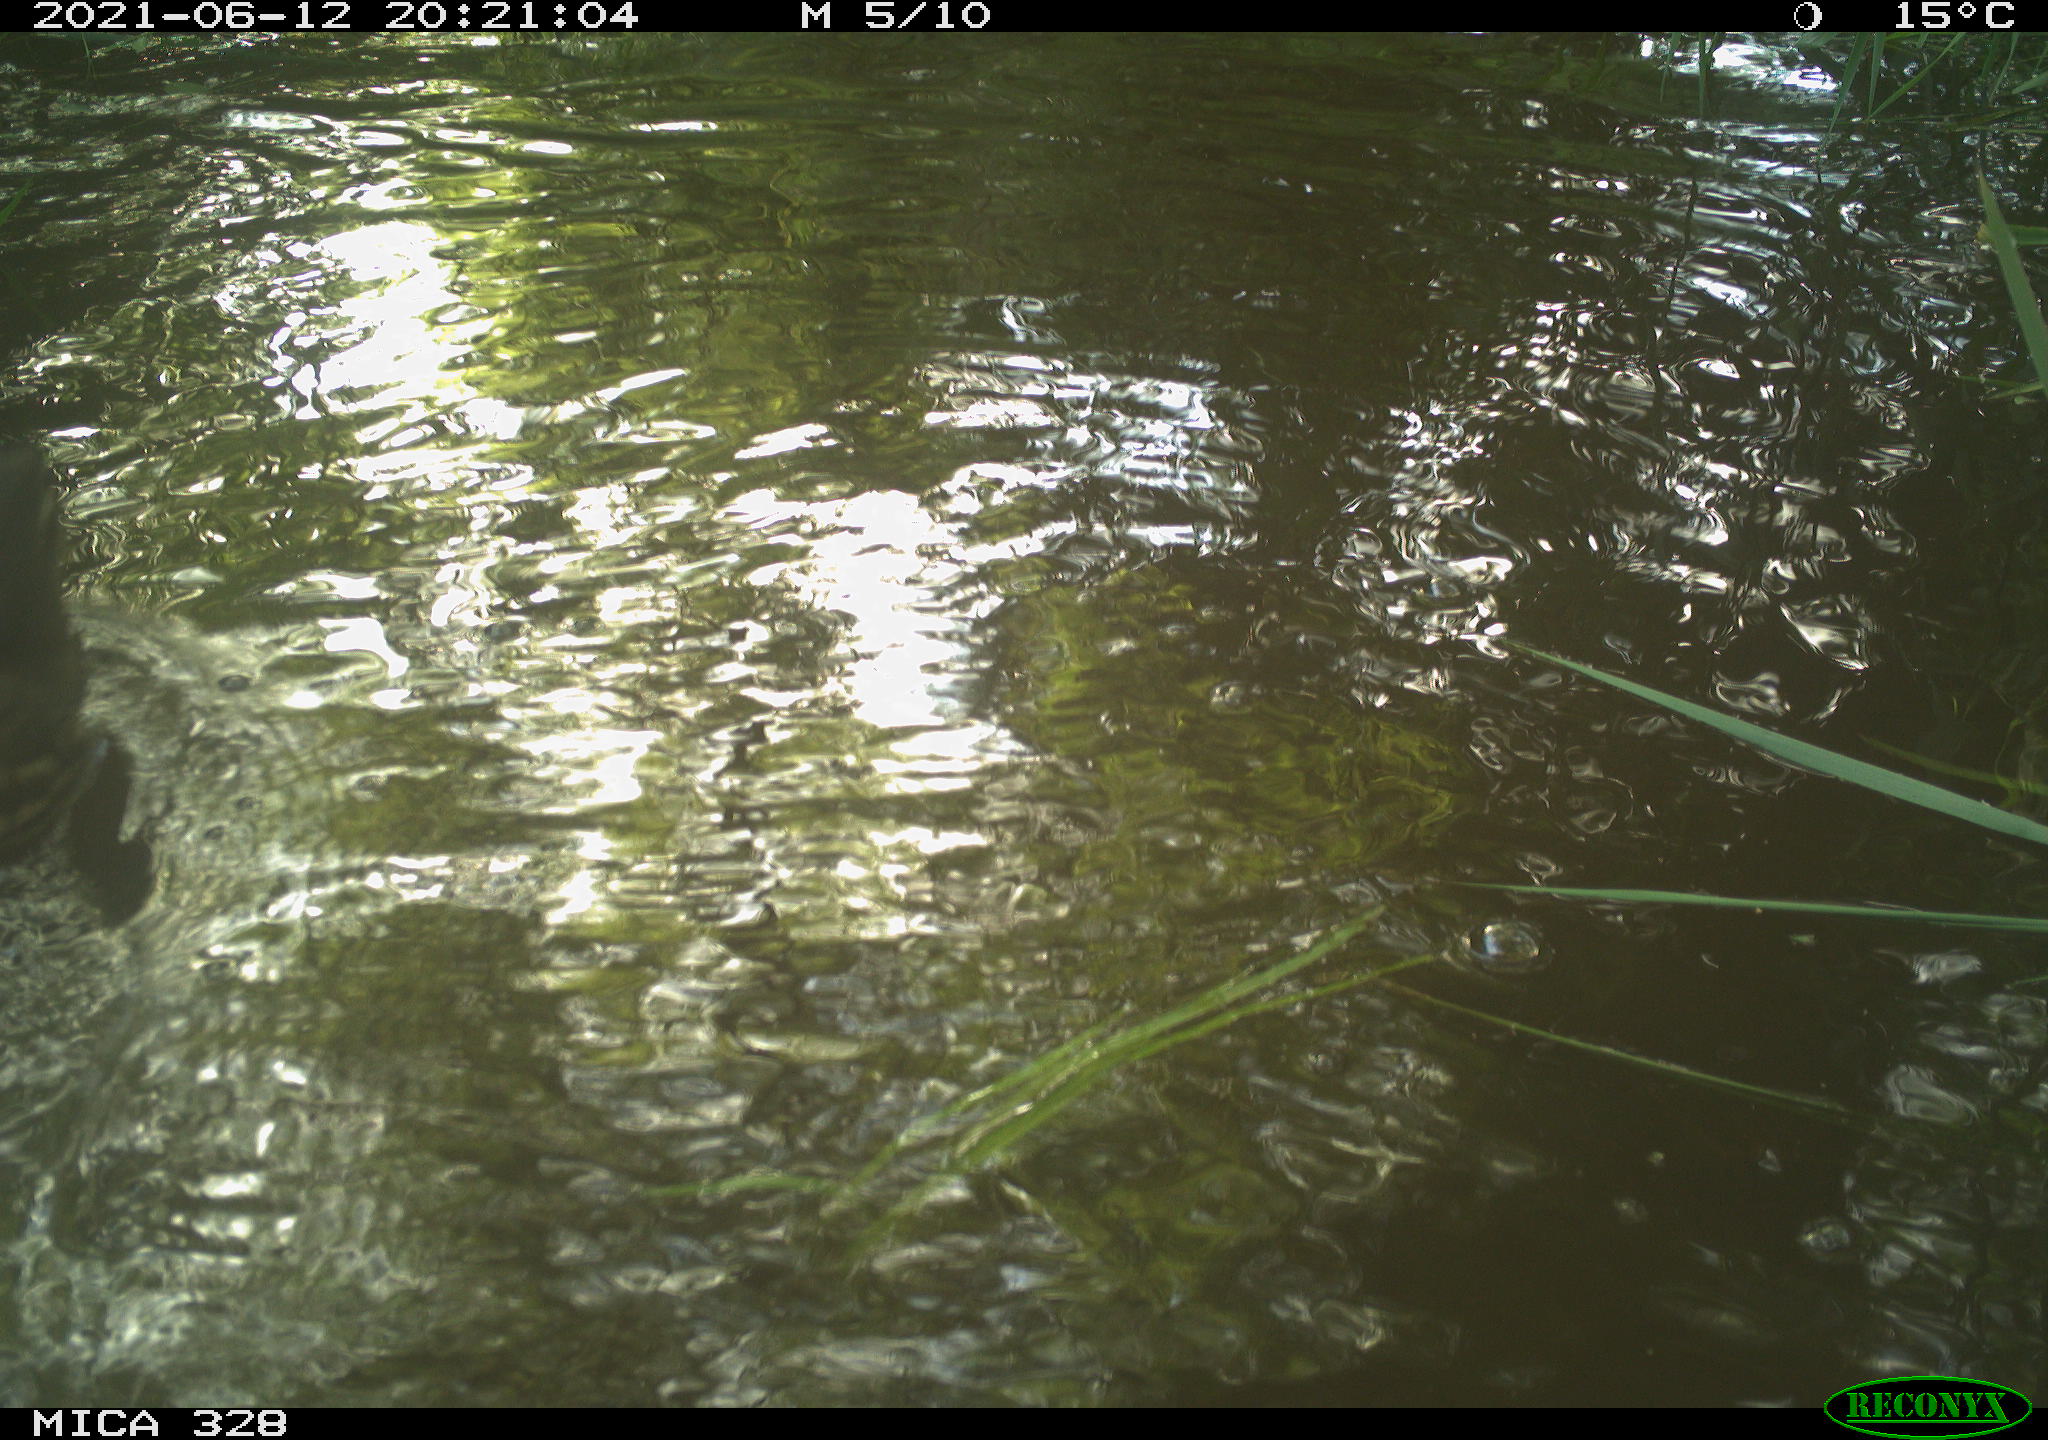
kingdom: Animalia
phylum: Chordata
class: Aves
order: Anseriformes
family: Anatidae
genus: Aix
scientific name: Aix galericulata
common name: Mandarin duck
